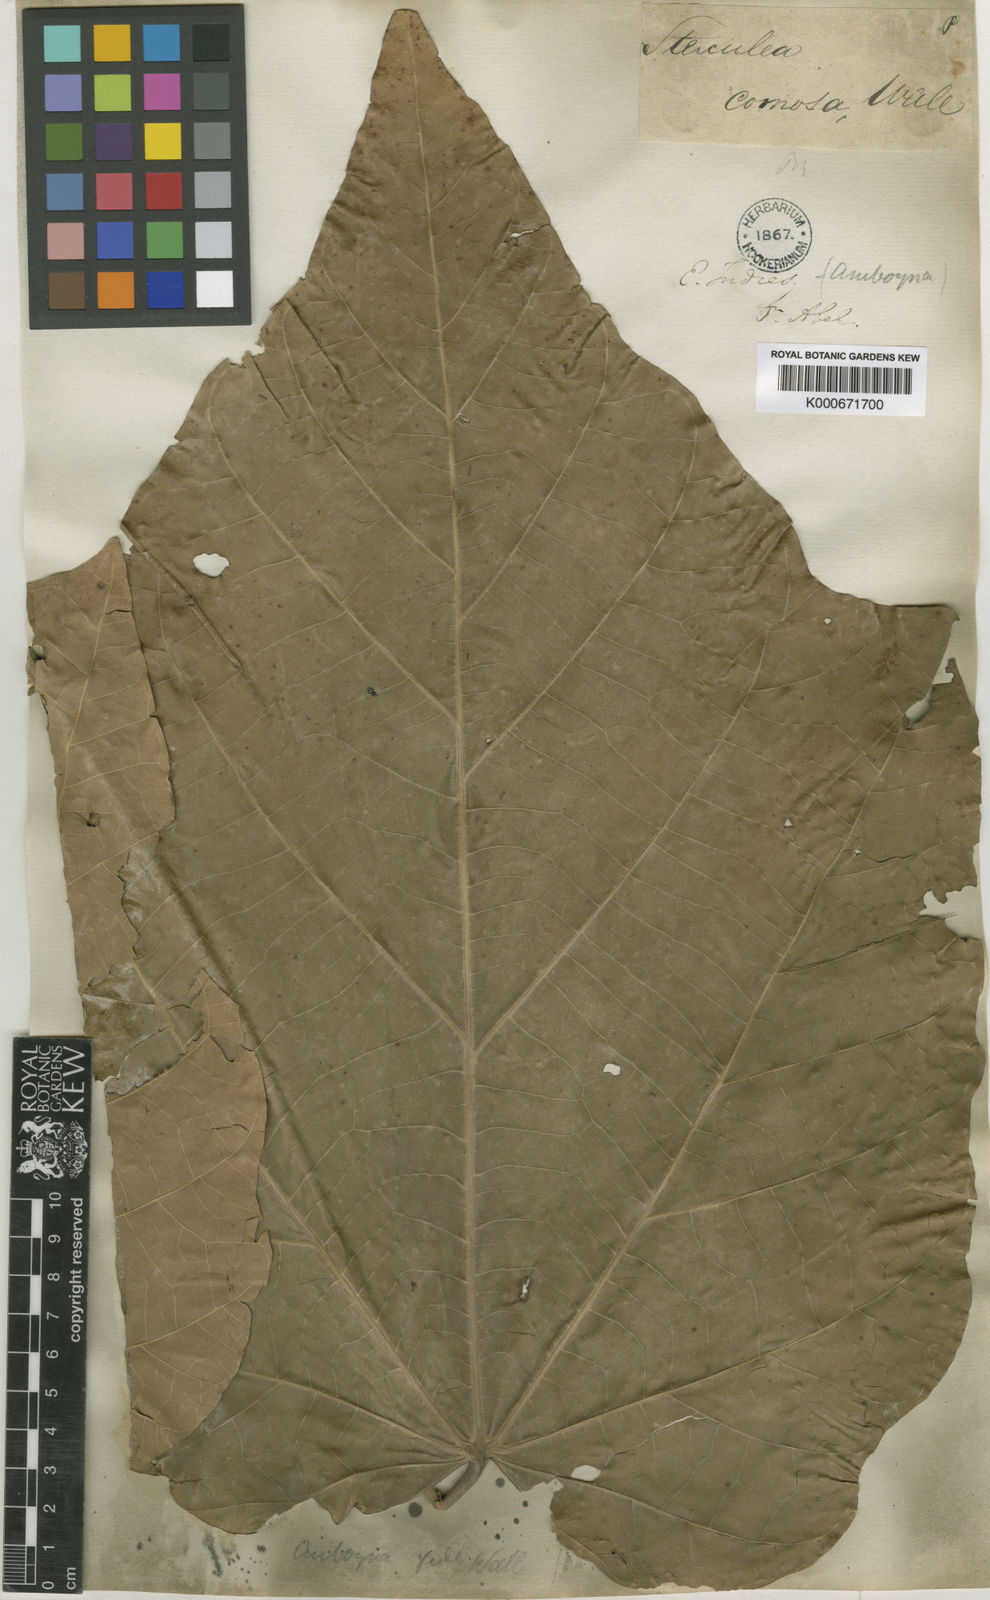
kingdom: Plantae
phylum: Tracheophyta
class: Magnoliopsida
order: Malvales
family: Malvaceae
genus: Sterculia
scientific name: Sterculia comosa
